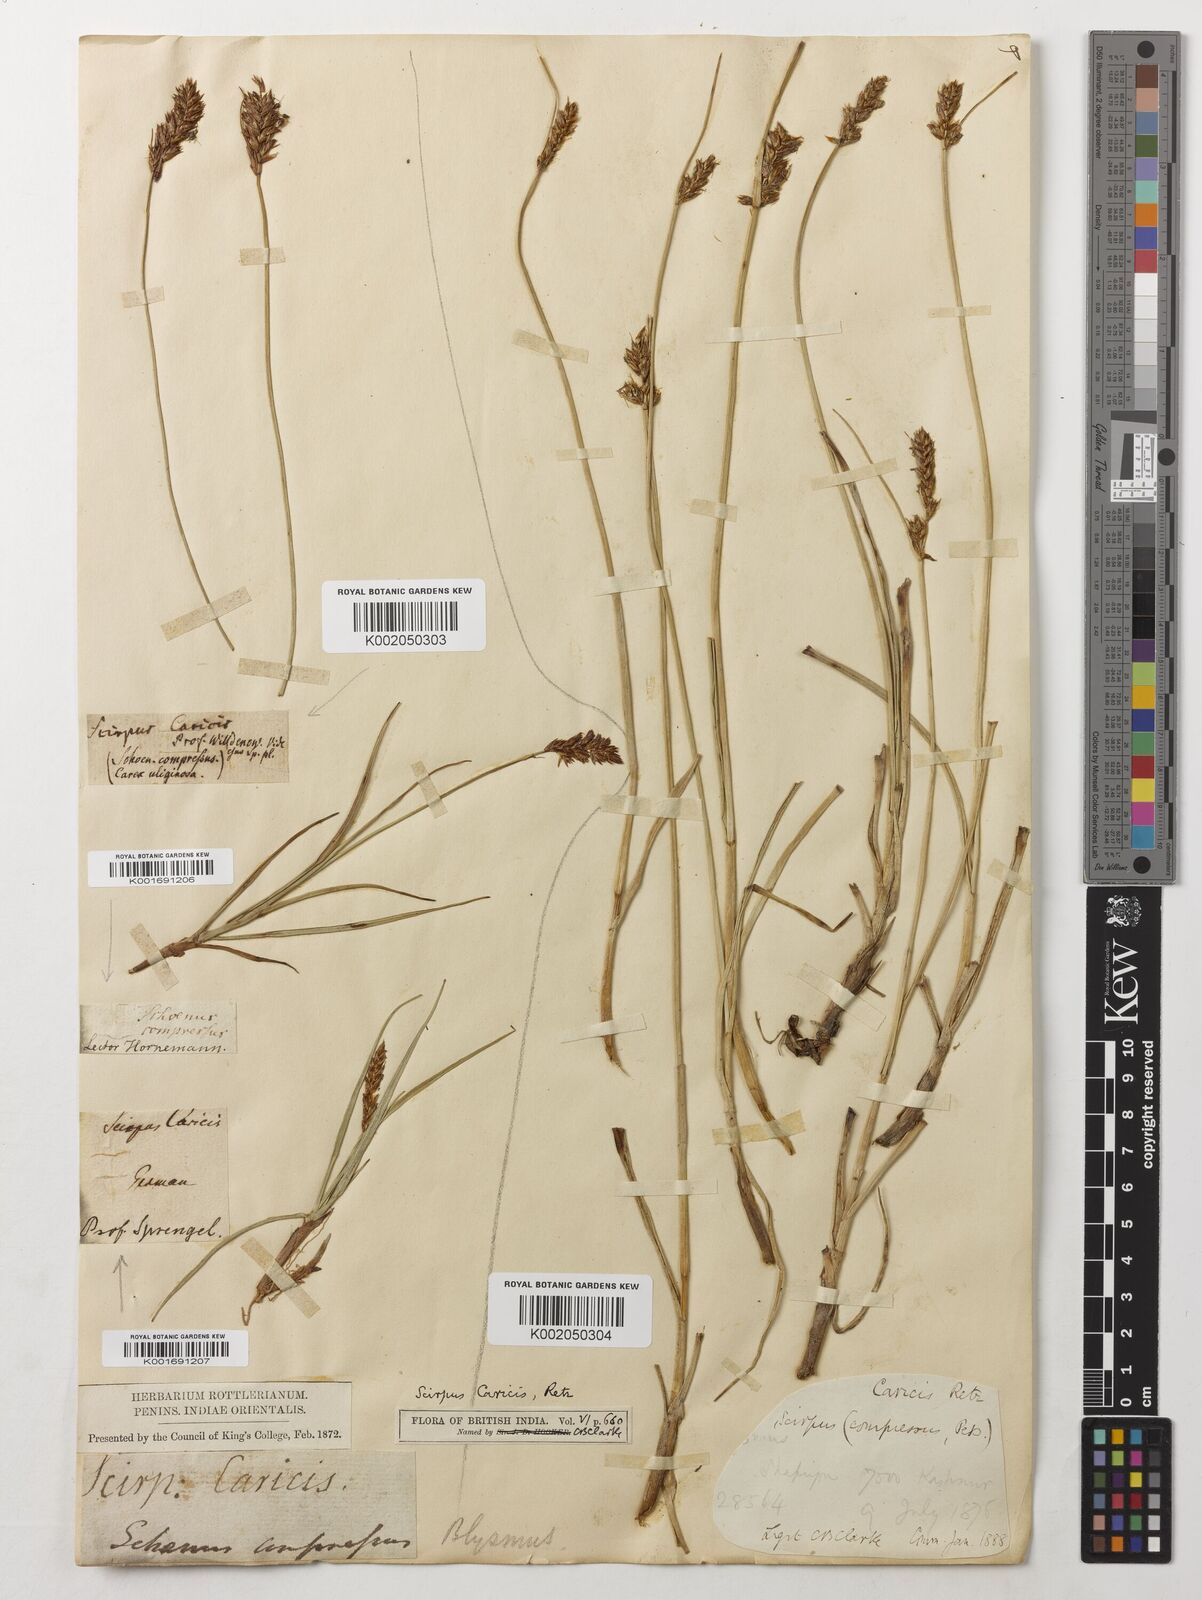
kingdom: Plantae
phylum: Tracheophyta
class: Liliopsida
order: Poales
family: Cyperaceae
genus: Blysmus
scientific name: Blysmus compressus
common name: Flat-sedge
